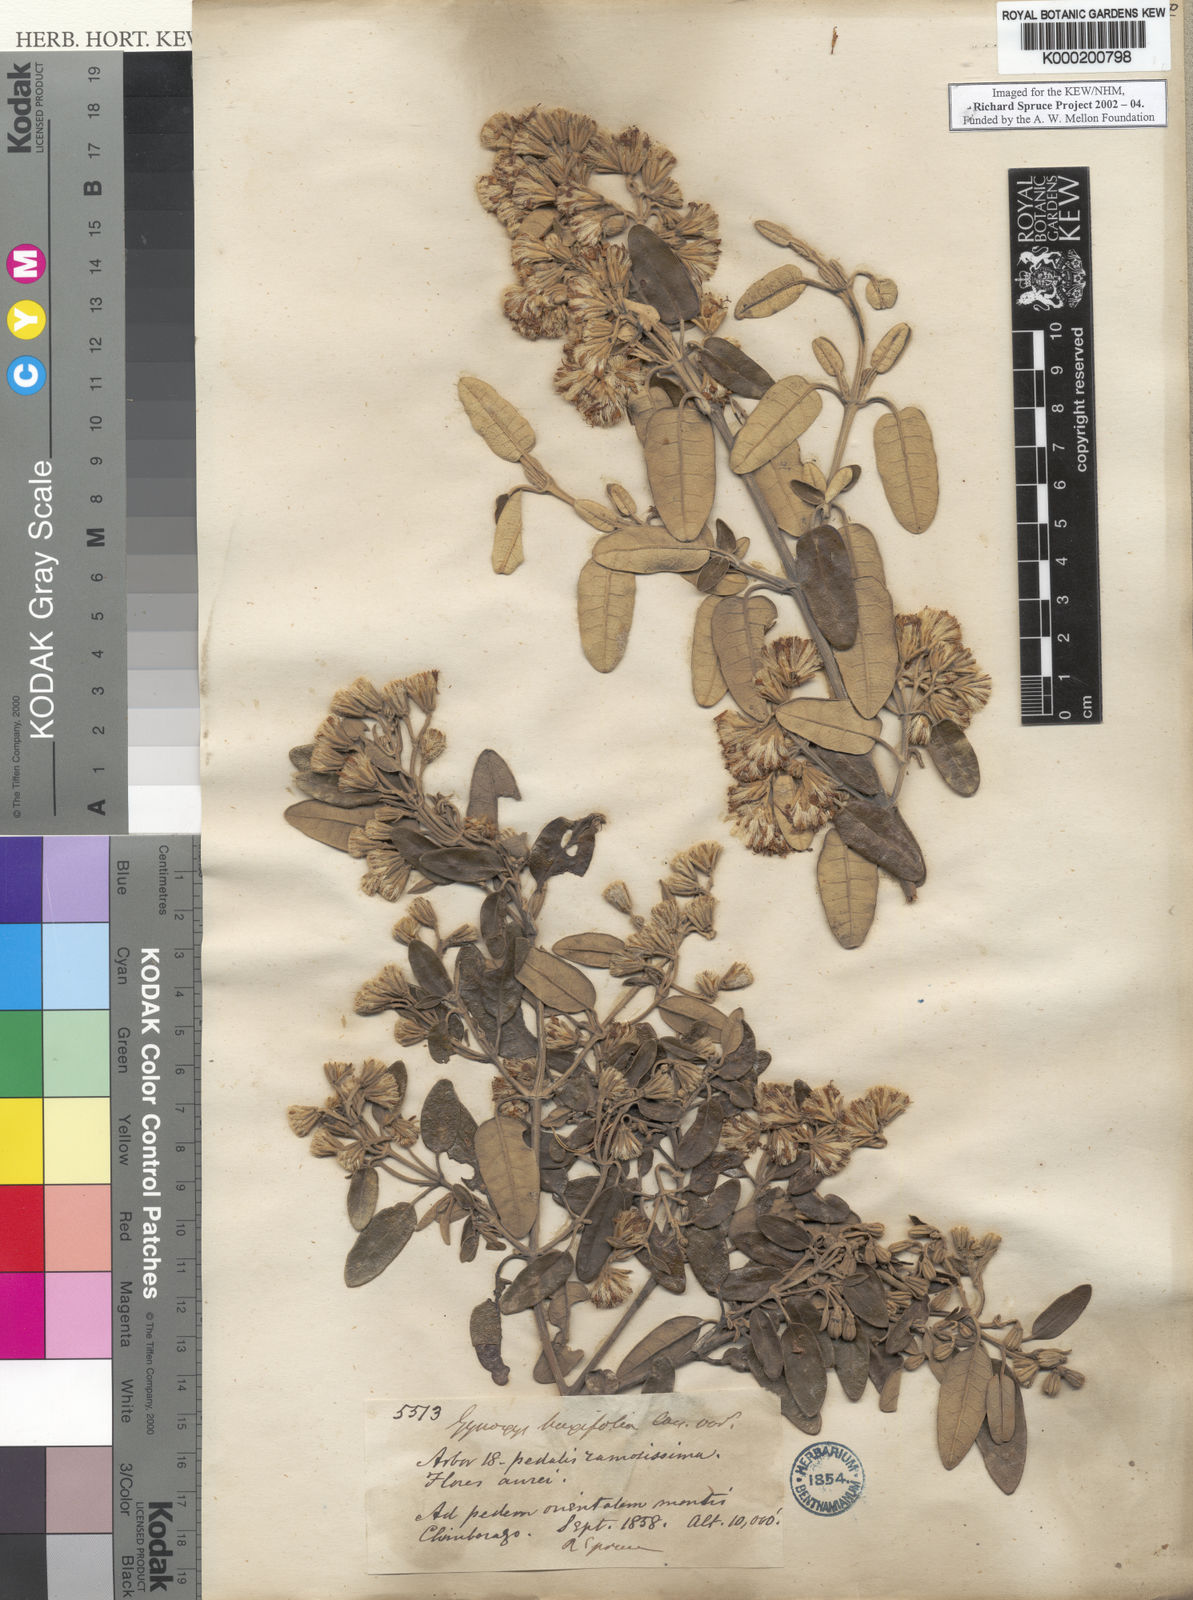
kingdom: Plantae
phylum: Tracheophyta
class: Magnoliopsida
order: Asterales
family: Asteraceae
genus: Gynoxys
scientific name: Gynoxys buxifolia
